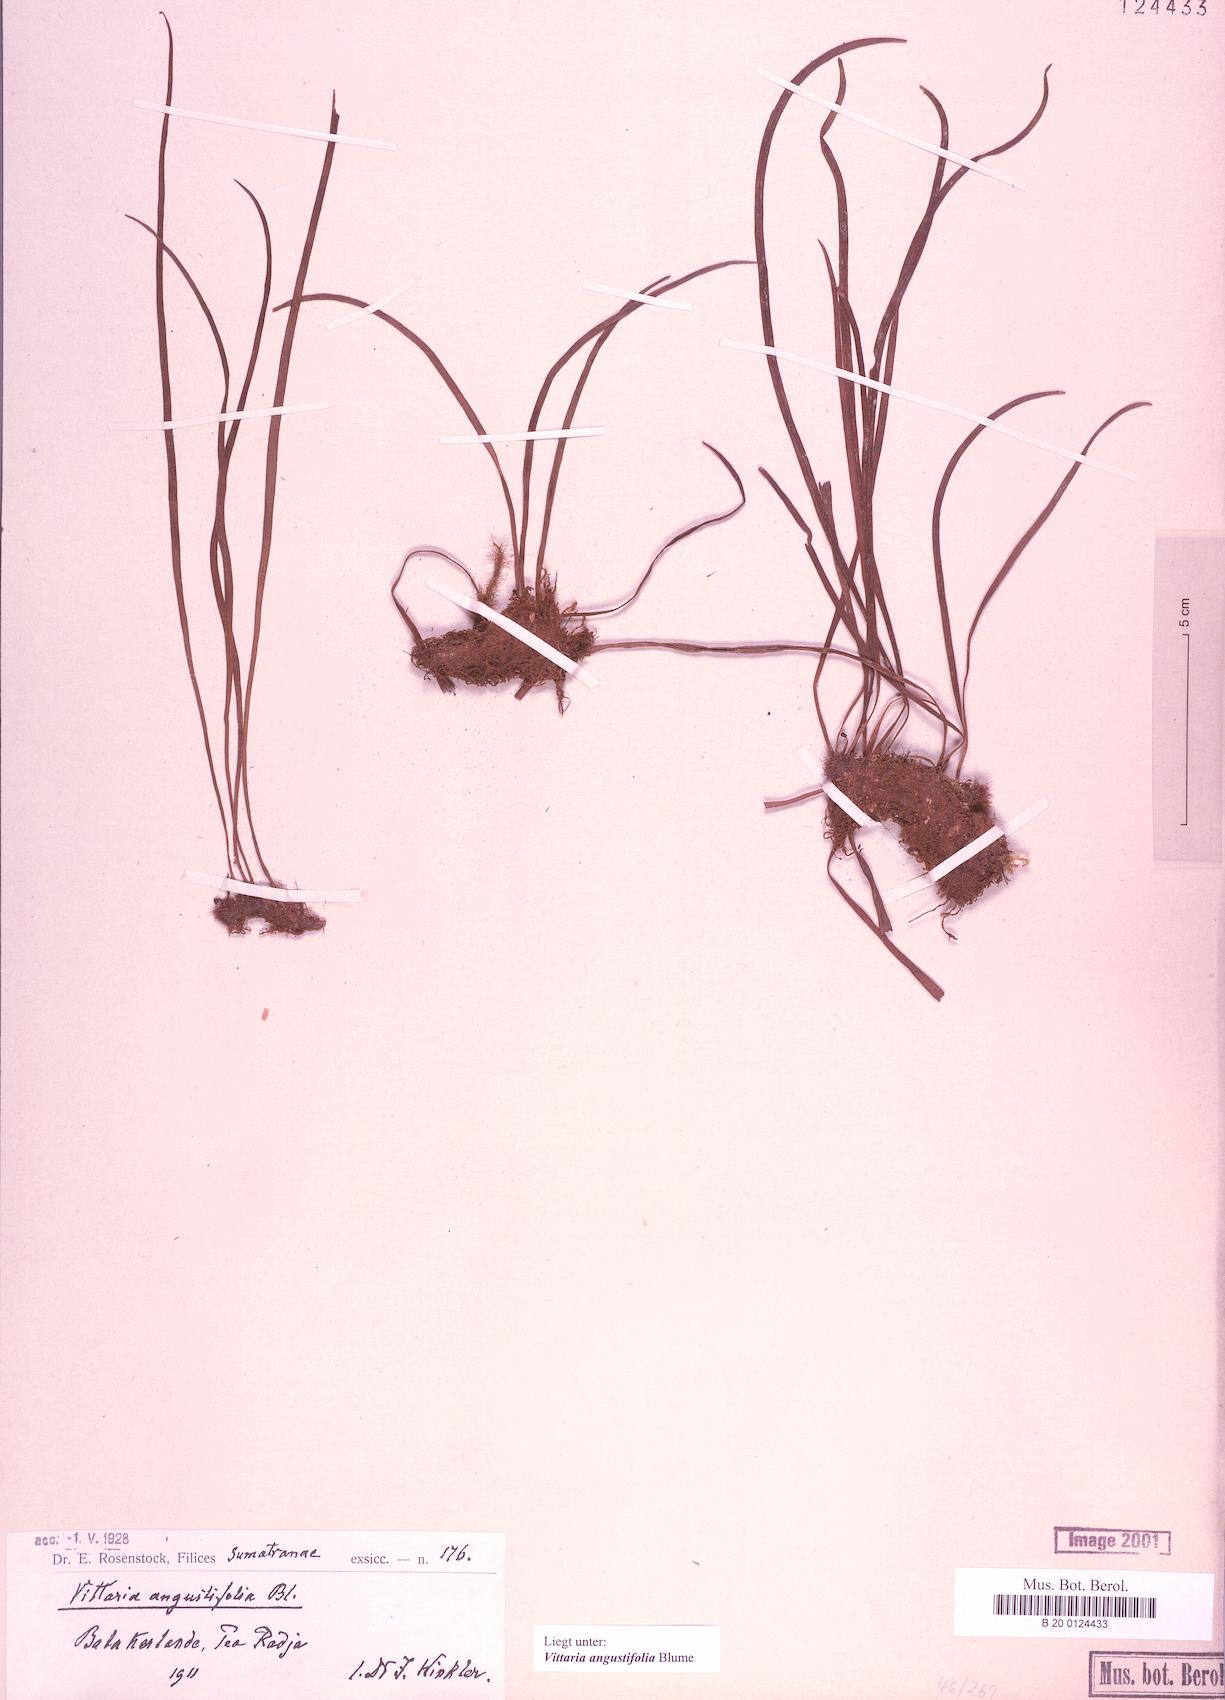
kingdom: Plantae
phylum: Tracheophyta
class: Polypodiopsida
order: Polypodiales
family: Pteridaceae
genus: Ananthacorus
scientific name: Ananthacorus angustifolius
